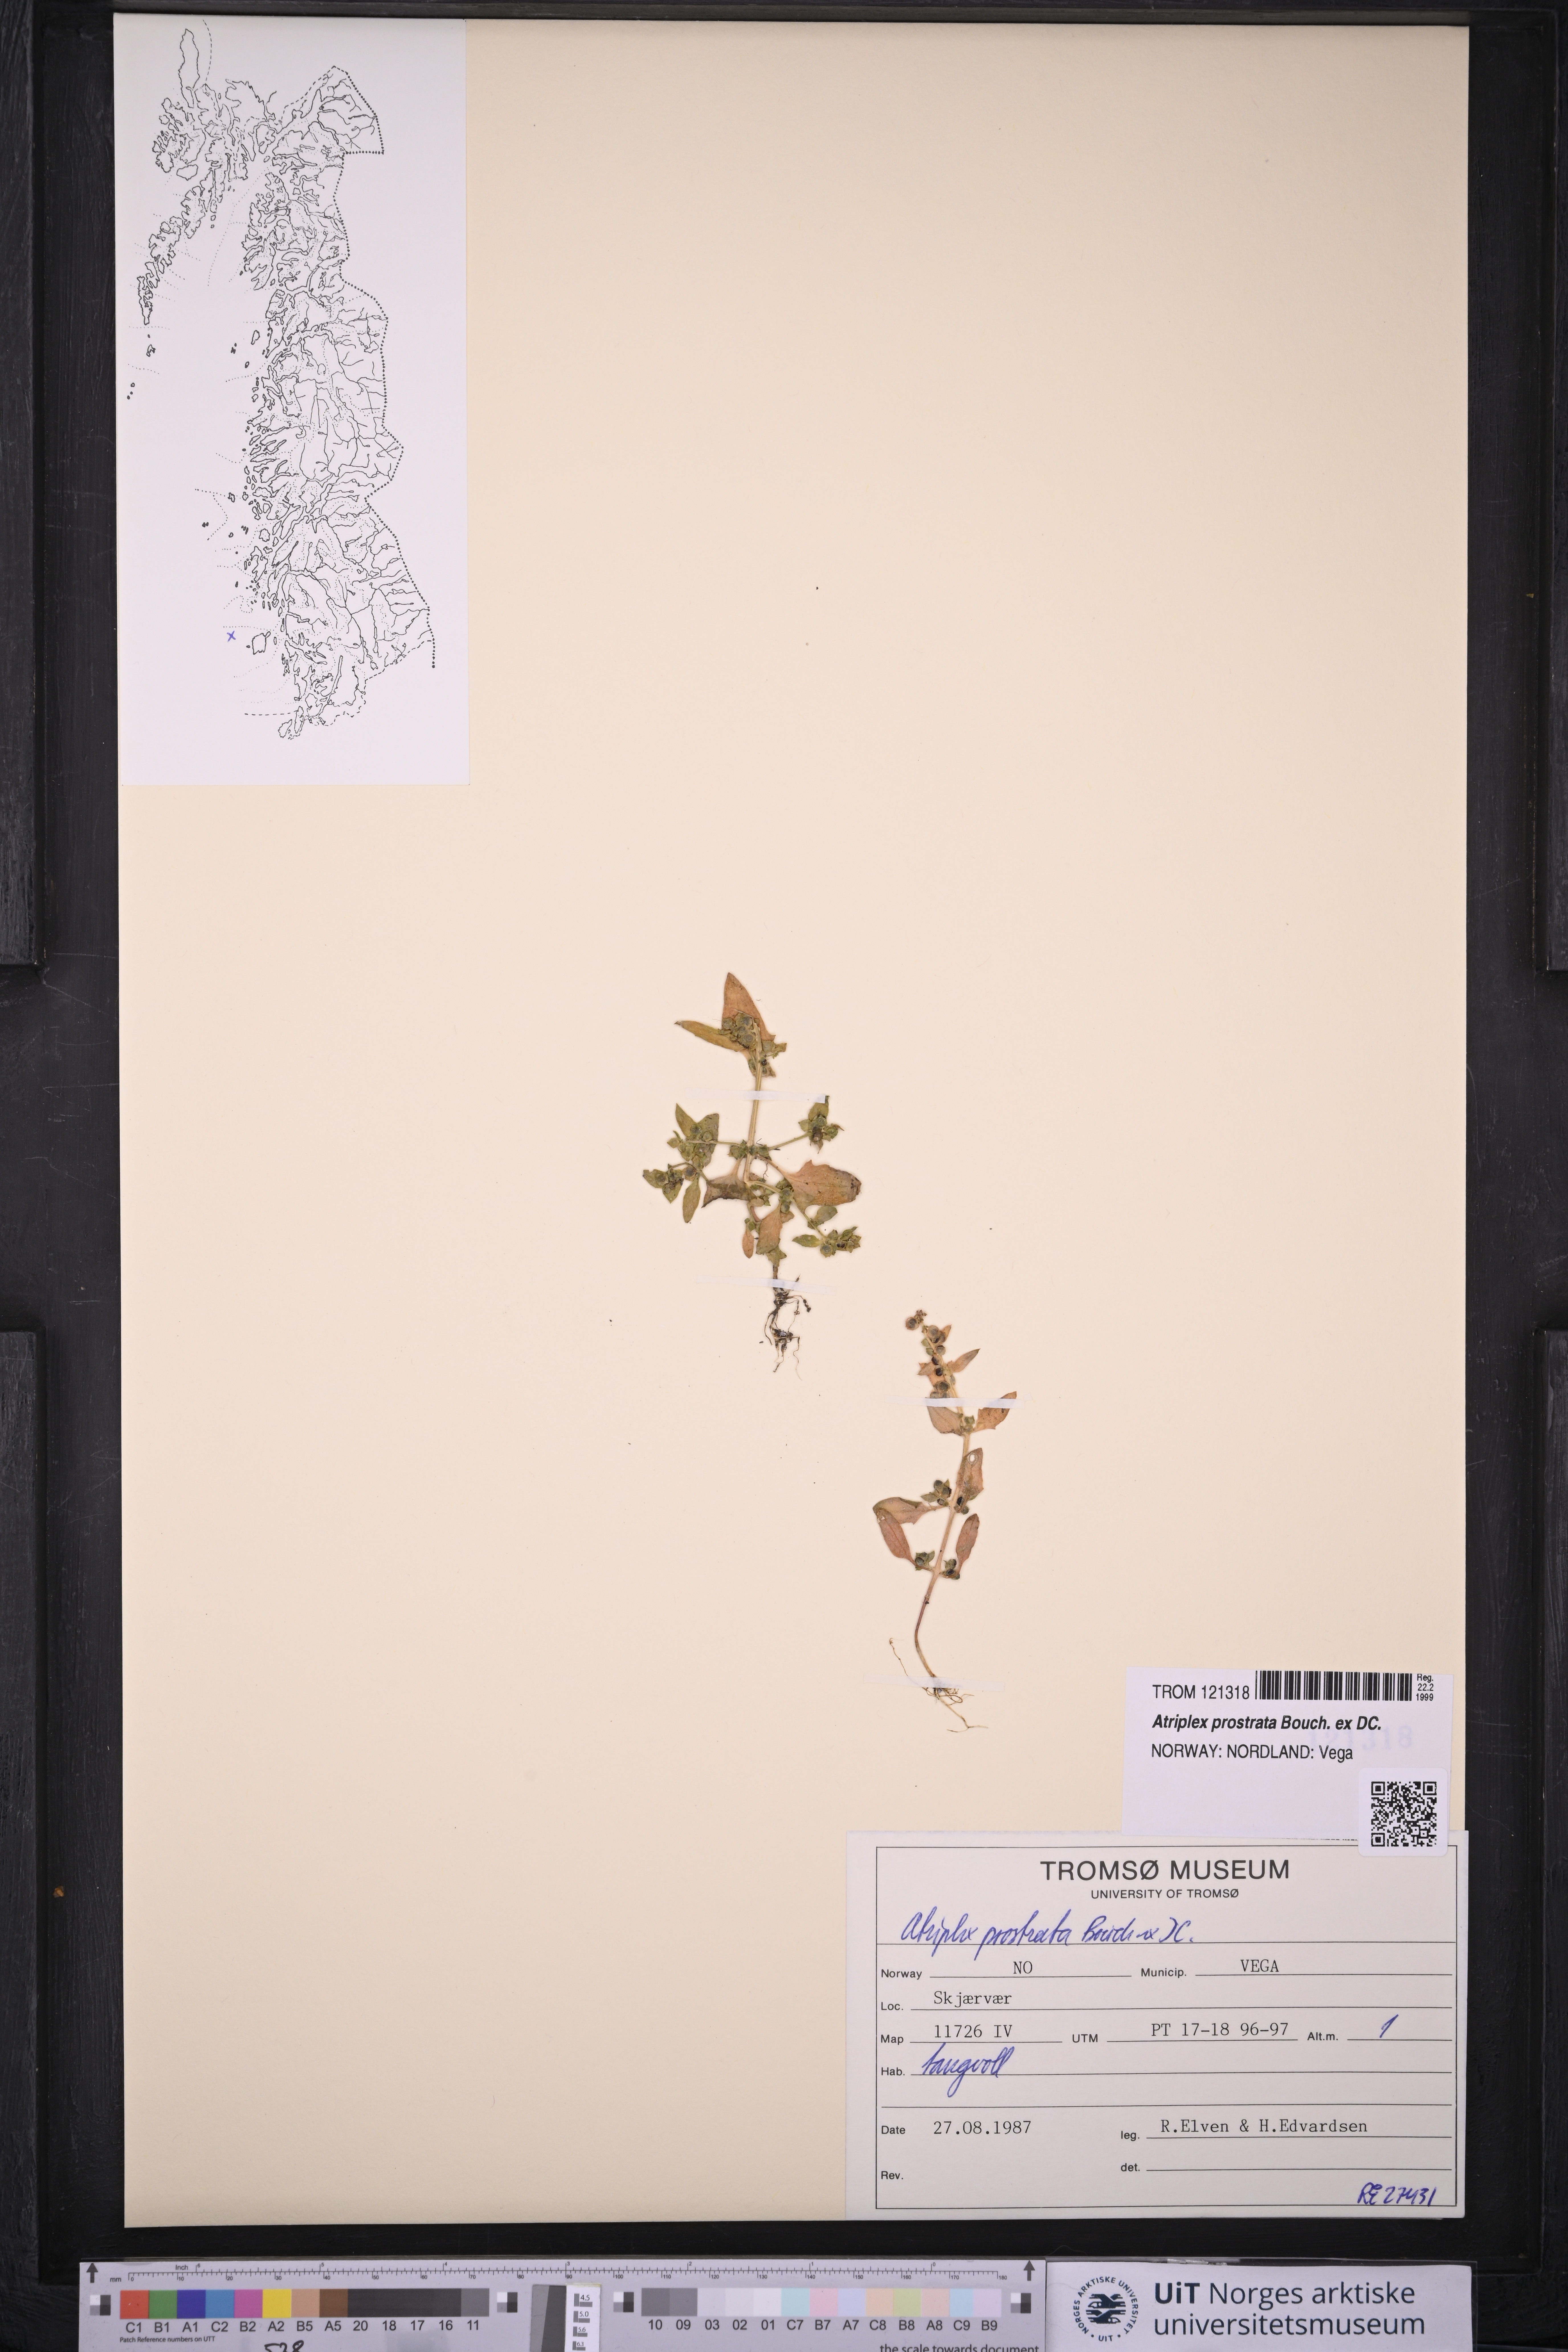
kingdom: Plantae
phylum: Tracheophyta
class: Magnoliopsida
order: Caryophyllales
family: Amaranthaceae
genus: Atriplex
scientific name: Atriplex prostrata
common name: Spear-leaved orache
